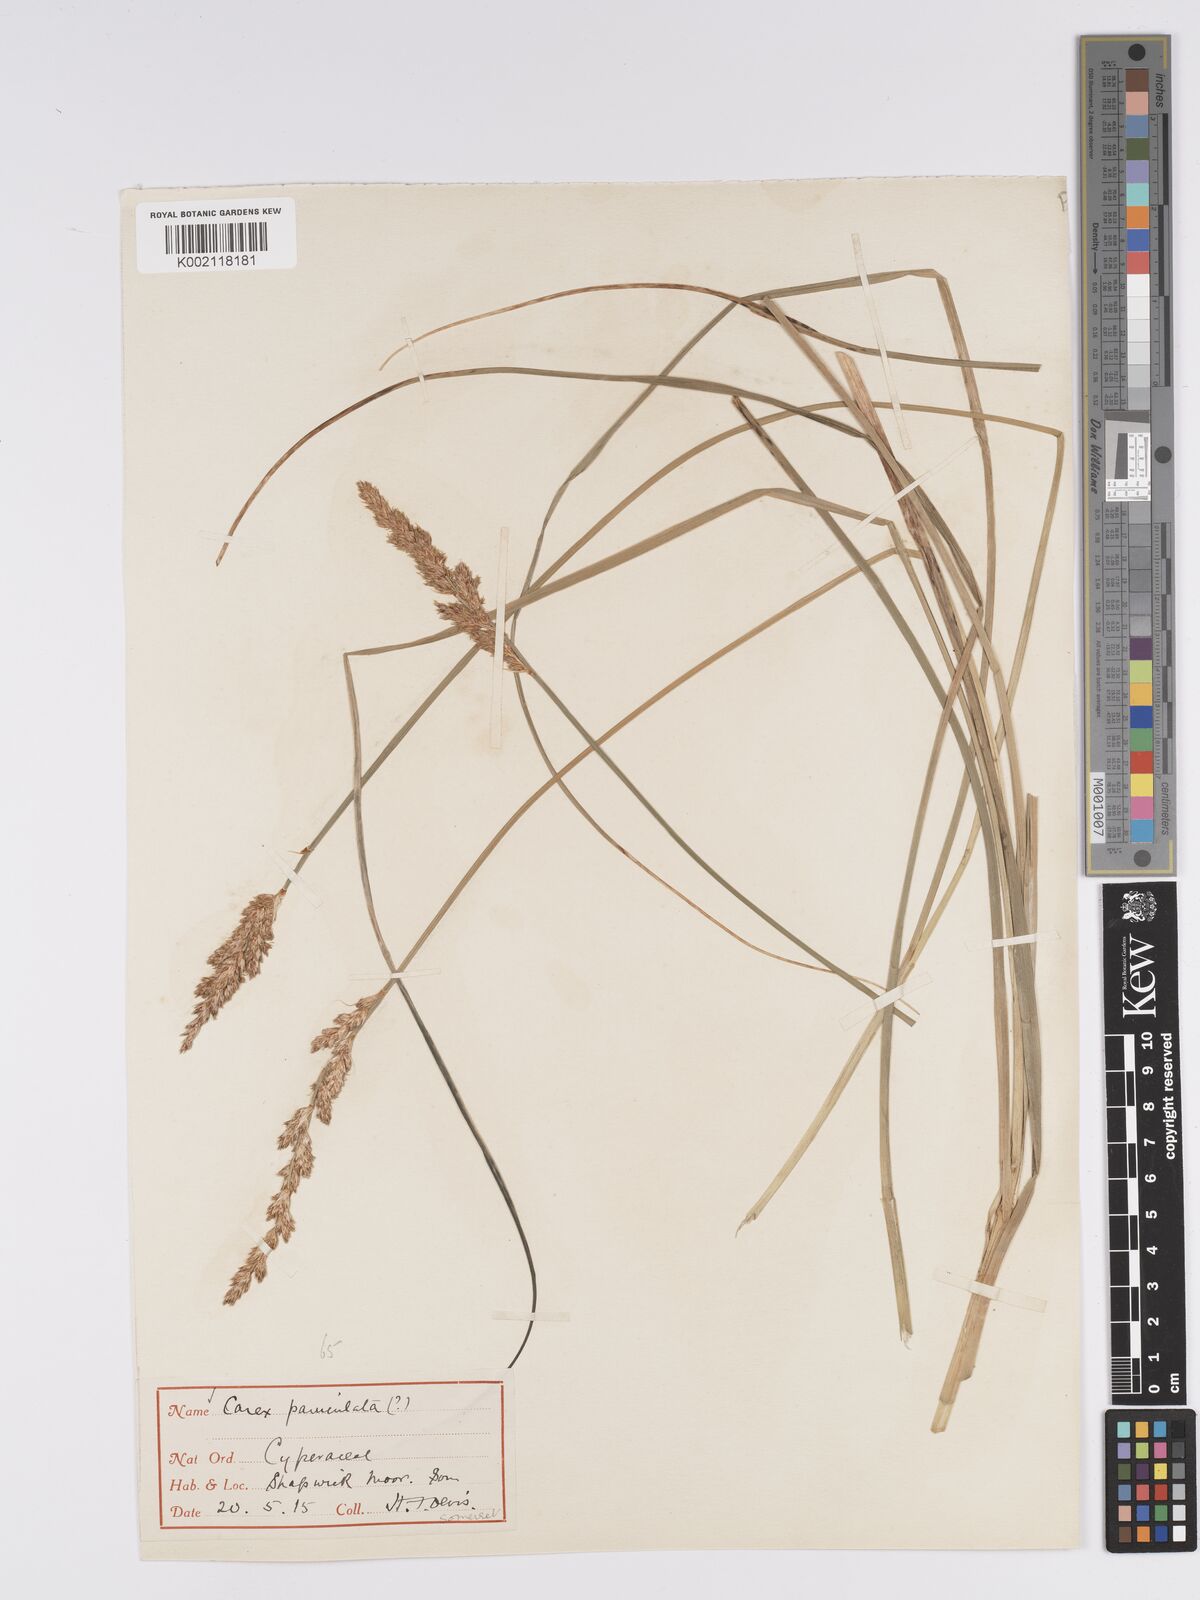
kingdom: Plantae
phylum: Tracheophyta
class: Liliopsida
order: Poales
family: Cyperaceae
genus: Carex
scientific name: Carex paniculata
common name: Greater tussock-sedge
